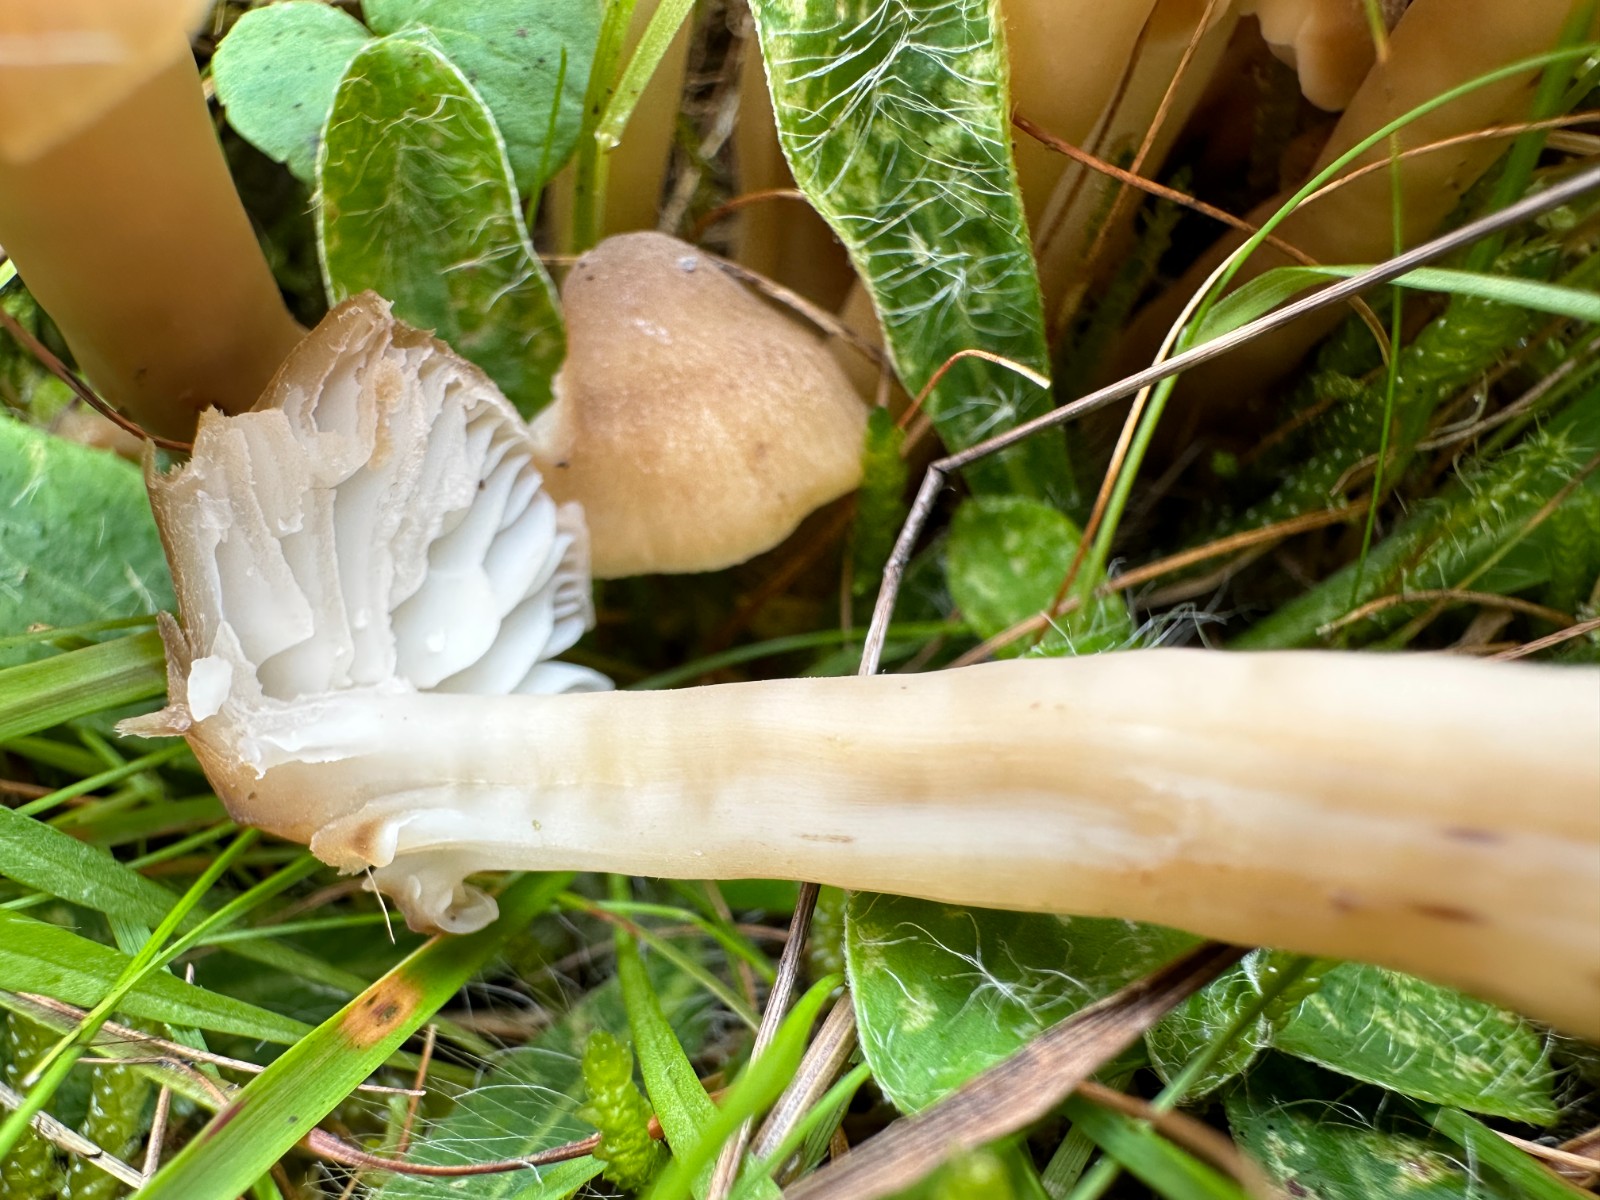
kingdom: Fungi
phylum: Basidiomycota
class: Agaricomycetes
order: Agaricales
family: Hygrophoraceae
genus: Hygrocybe
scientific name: Hygrocybe ingrata
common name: Jensens vokshat
